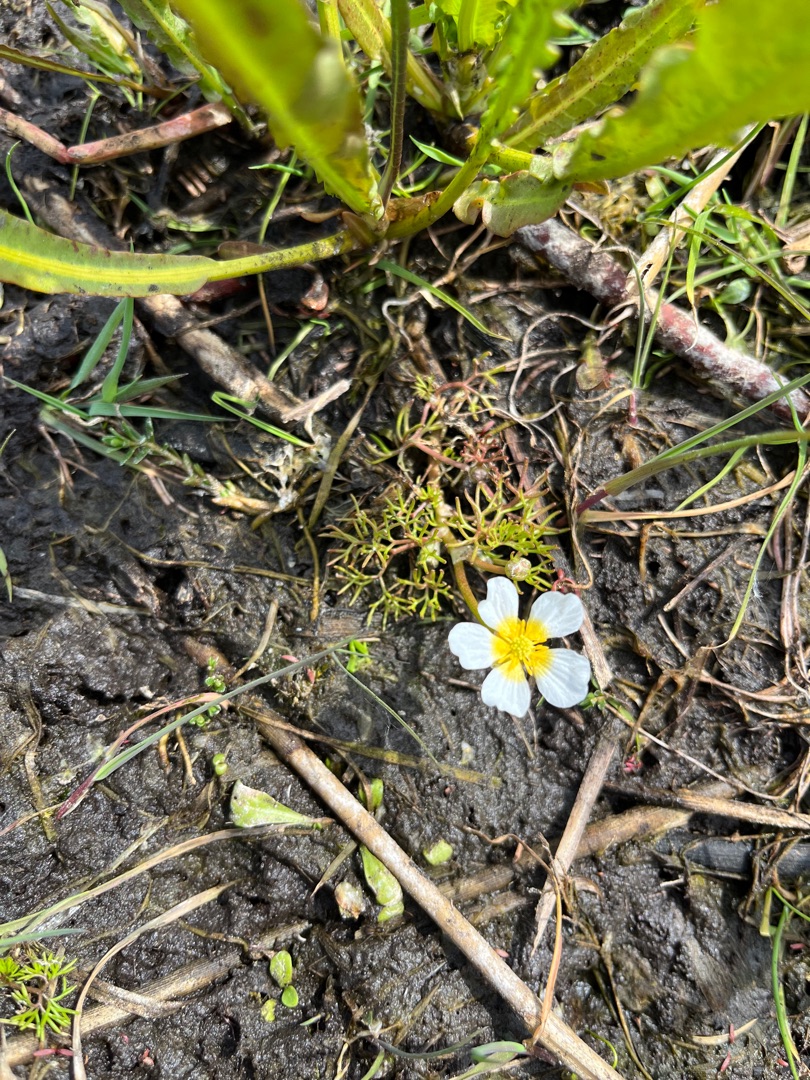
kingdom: Plantae
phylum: Tracheophyta
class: Magnoliopsida
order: Ranunculales
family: Ranunculaceae
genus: Ranunculus
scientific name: Ranunculus
